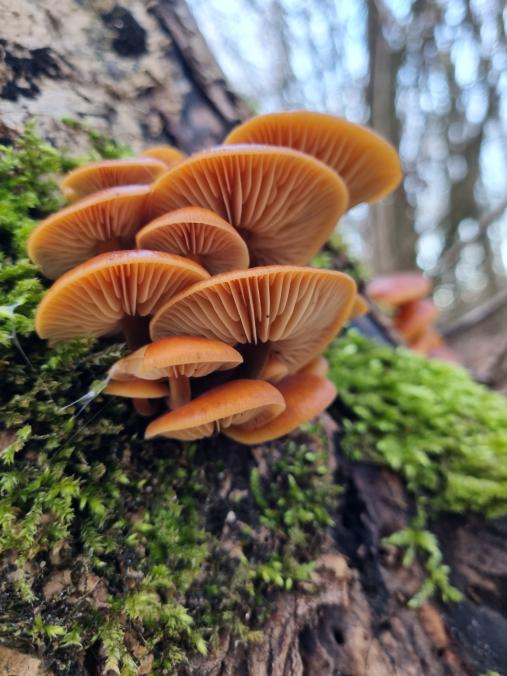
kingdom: Fungi
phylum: Basidiomycota
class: Agaricomycetes
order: Agaricales
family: Physalacriaceae
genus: Flammulina
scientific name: Flammulina
